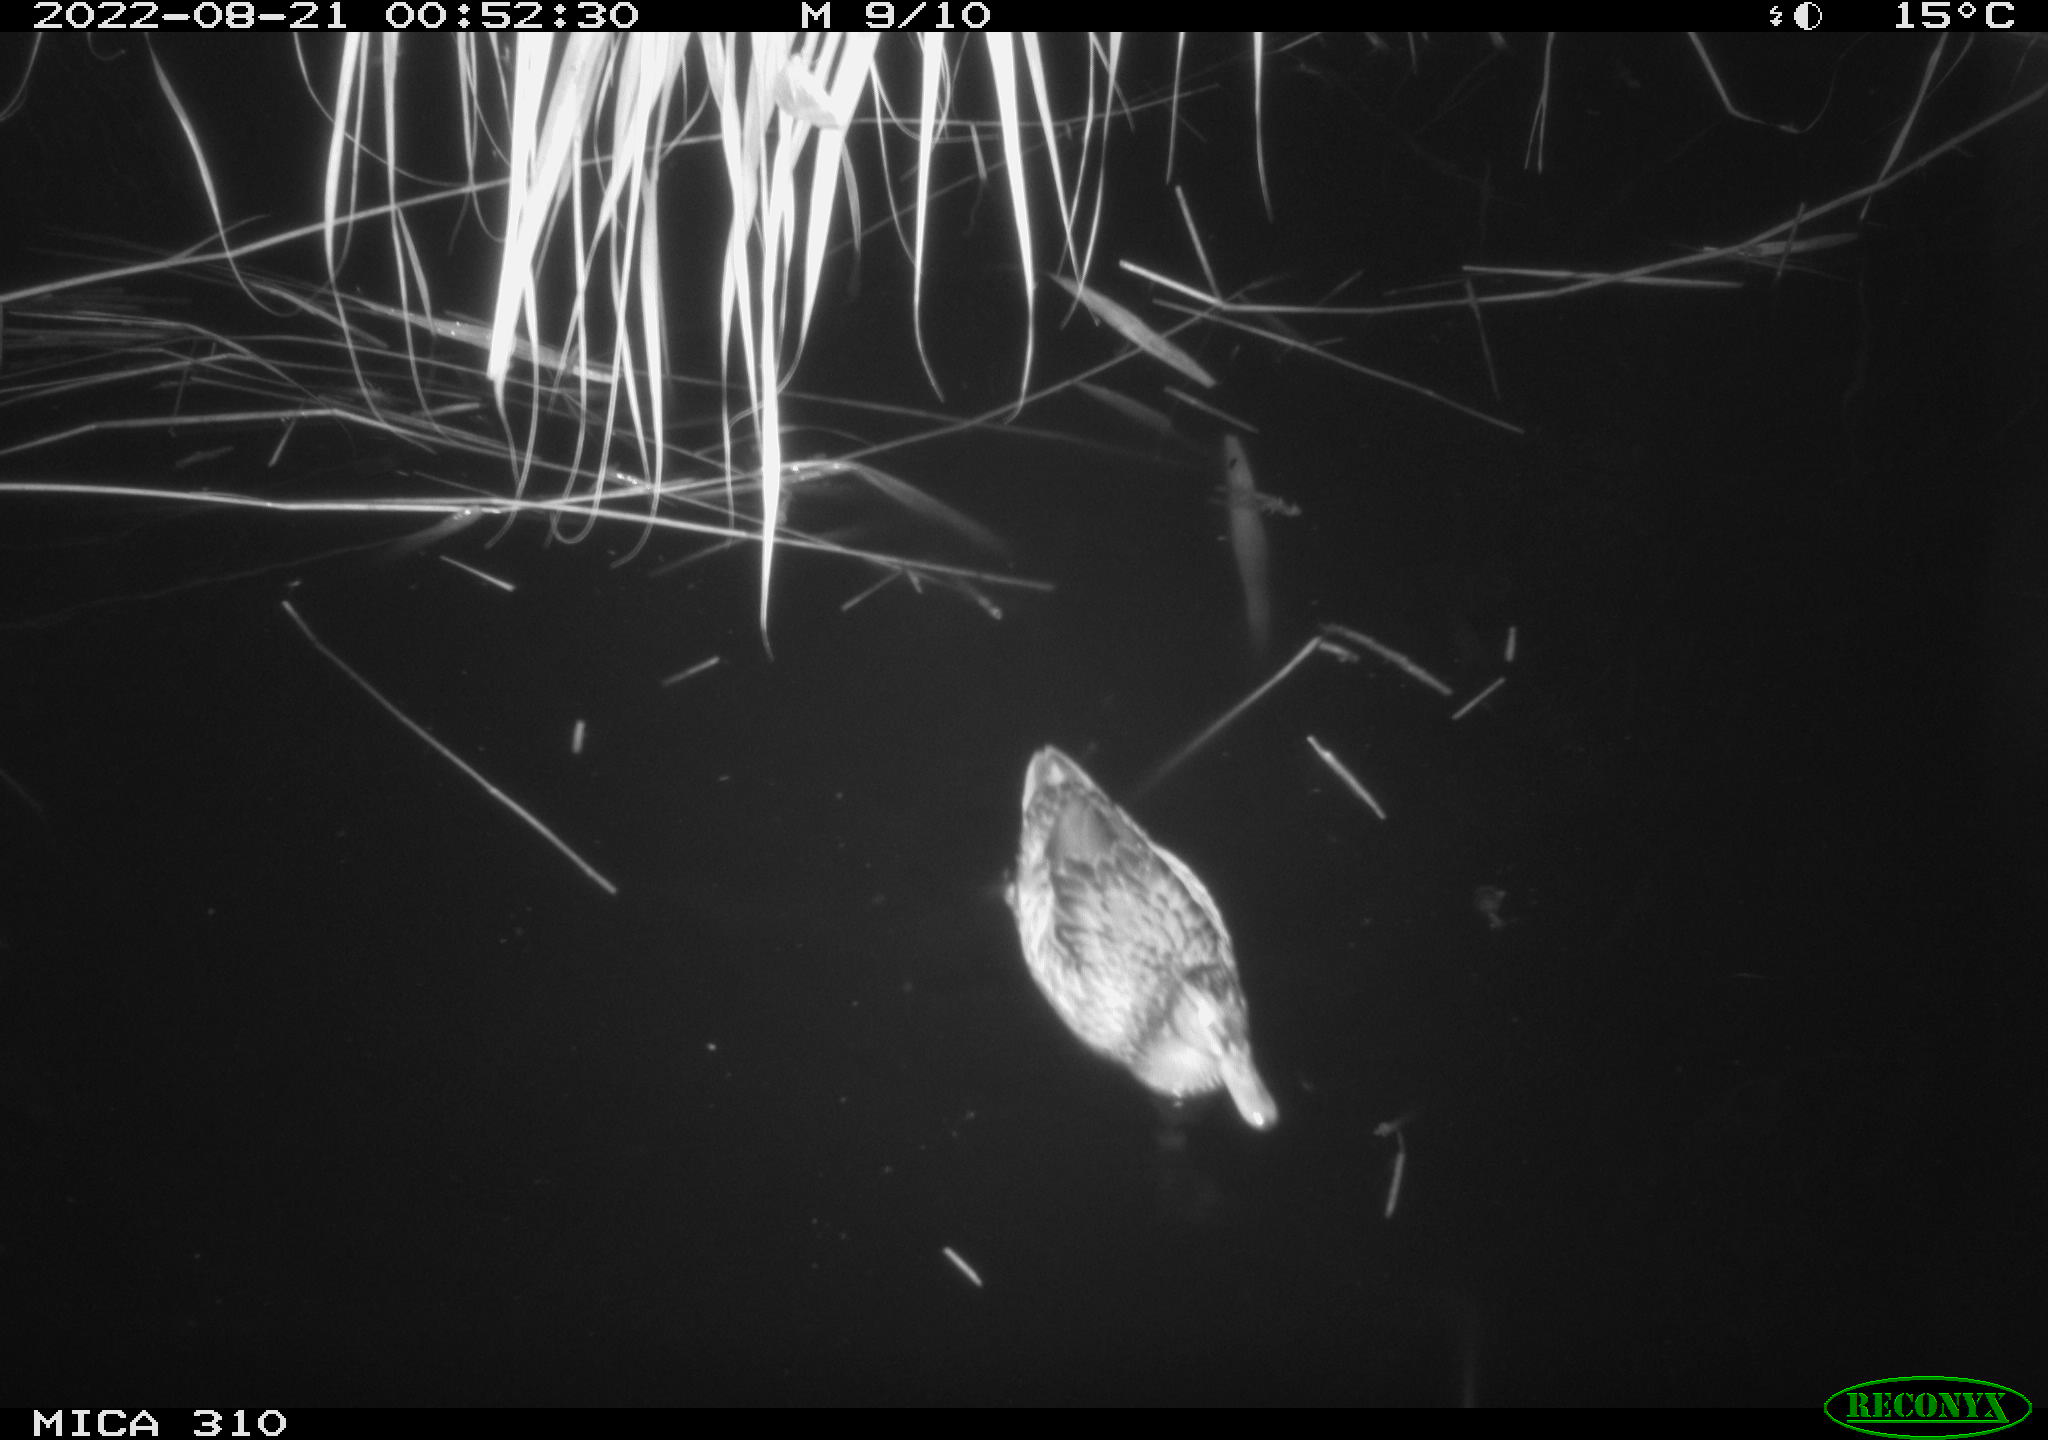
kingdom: Animalia
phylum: Chordata
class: Aves
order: Anseriformes
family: Anatidae
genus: Anas
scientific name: Anas platyrhynchos
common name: Mallard
